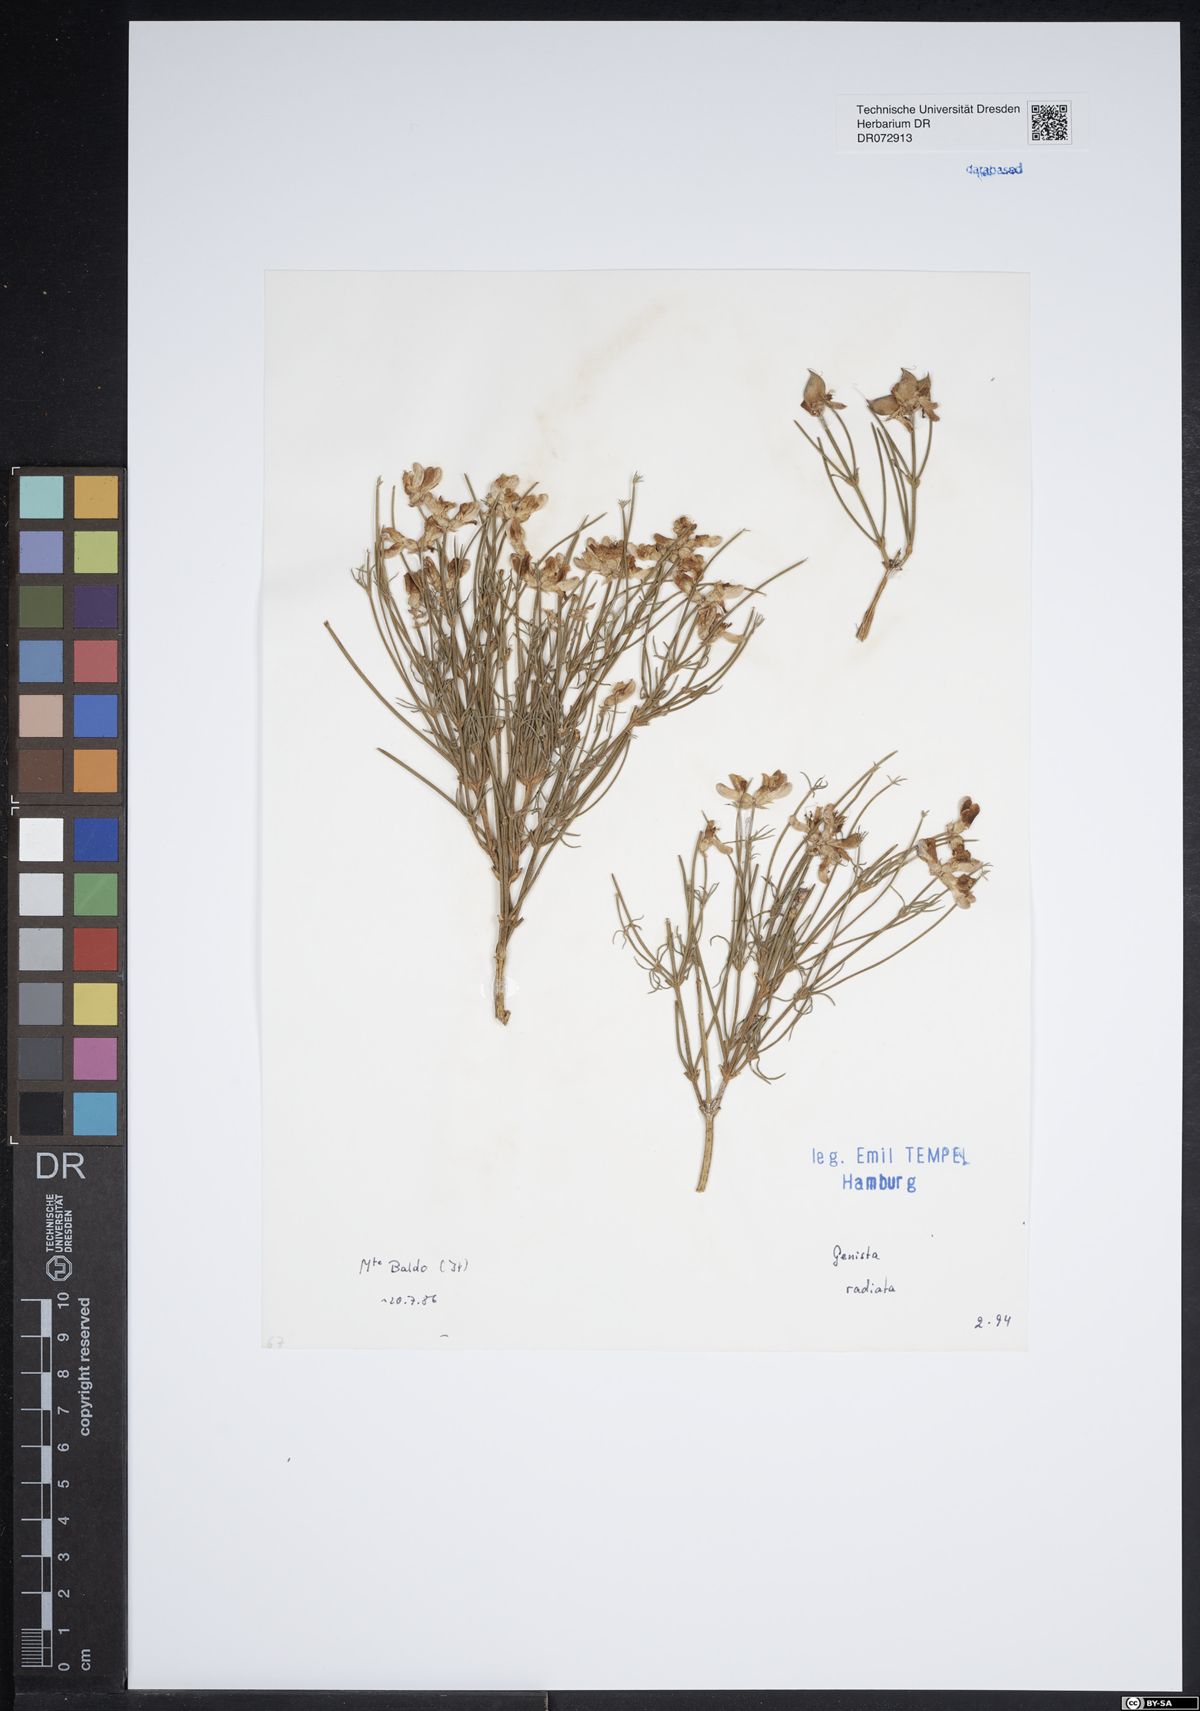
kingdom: Plantae
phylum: Tracheophyta
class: Magnoliopsida
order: Fabales
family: Fabaceae
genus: Genista
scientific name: Genista radiata
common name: Southern greenweed
